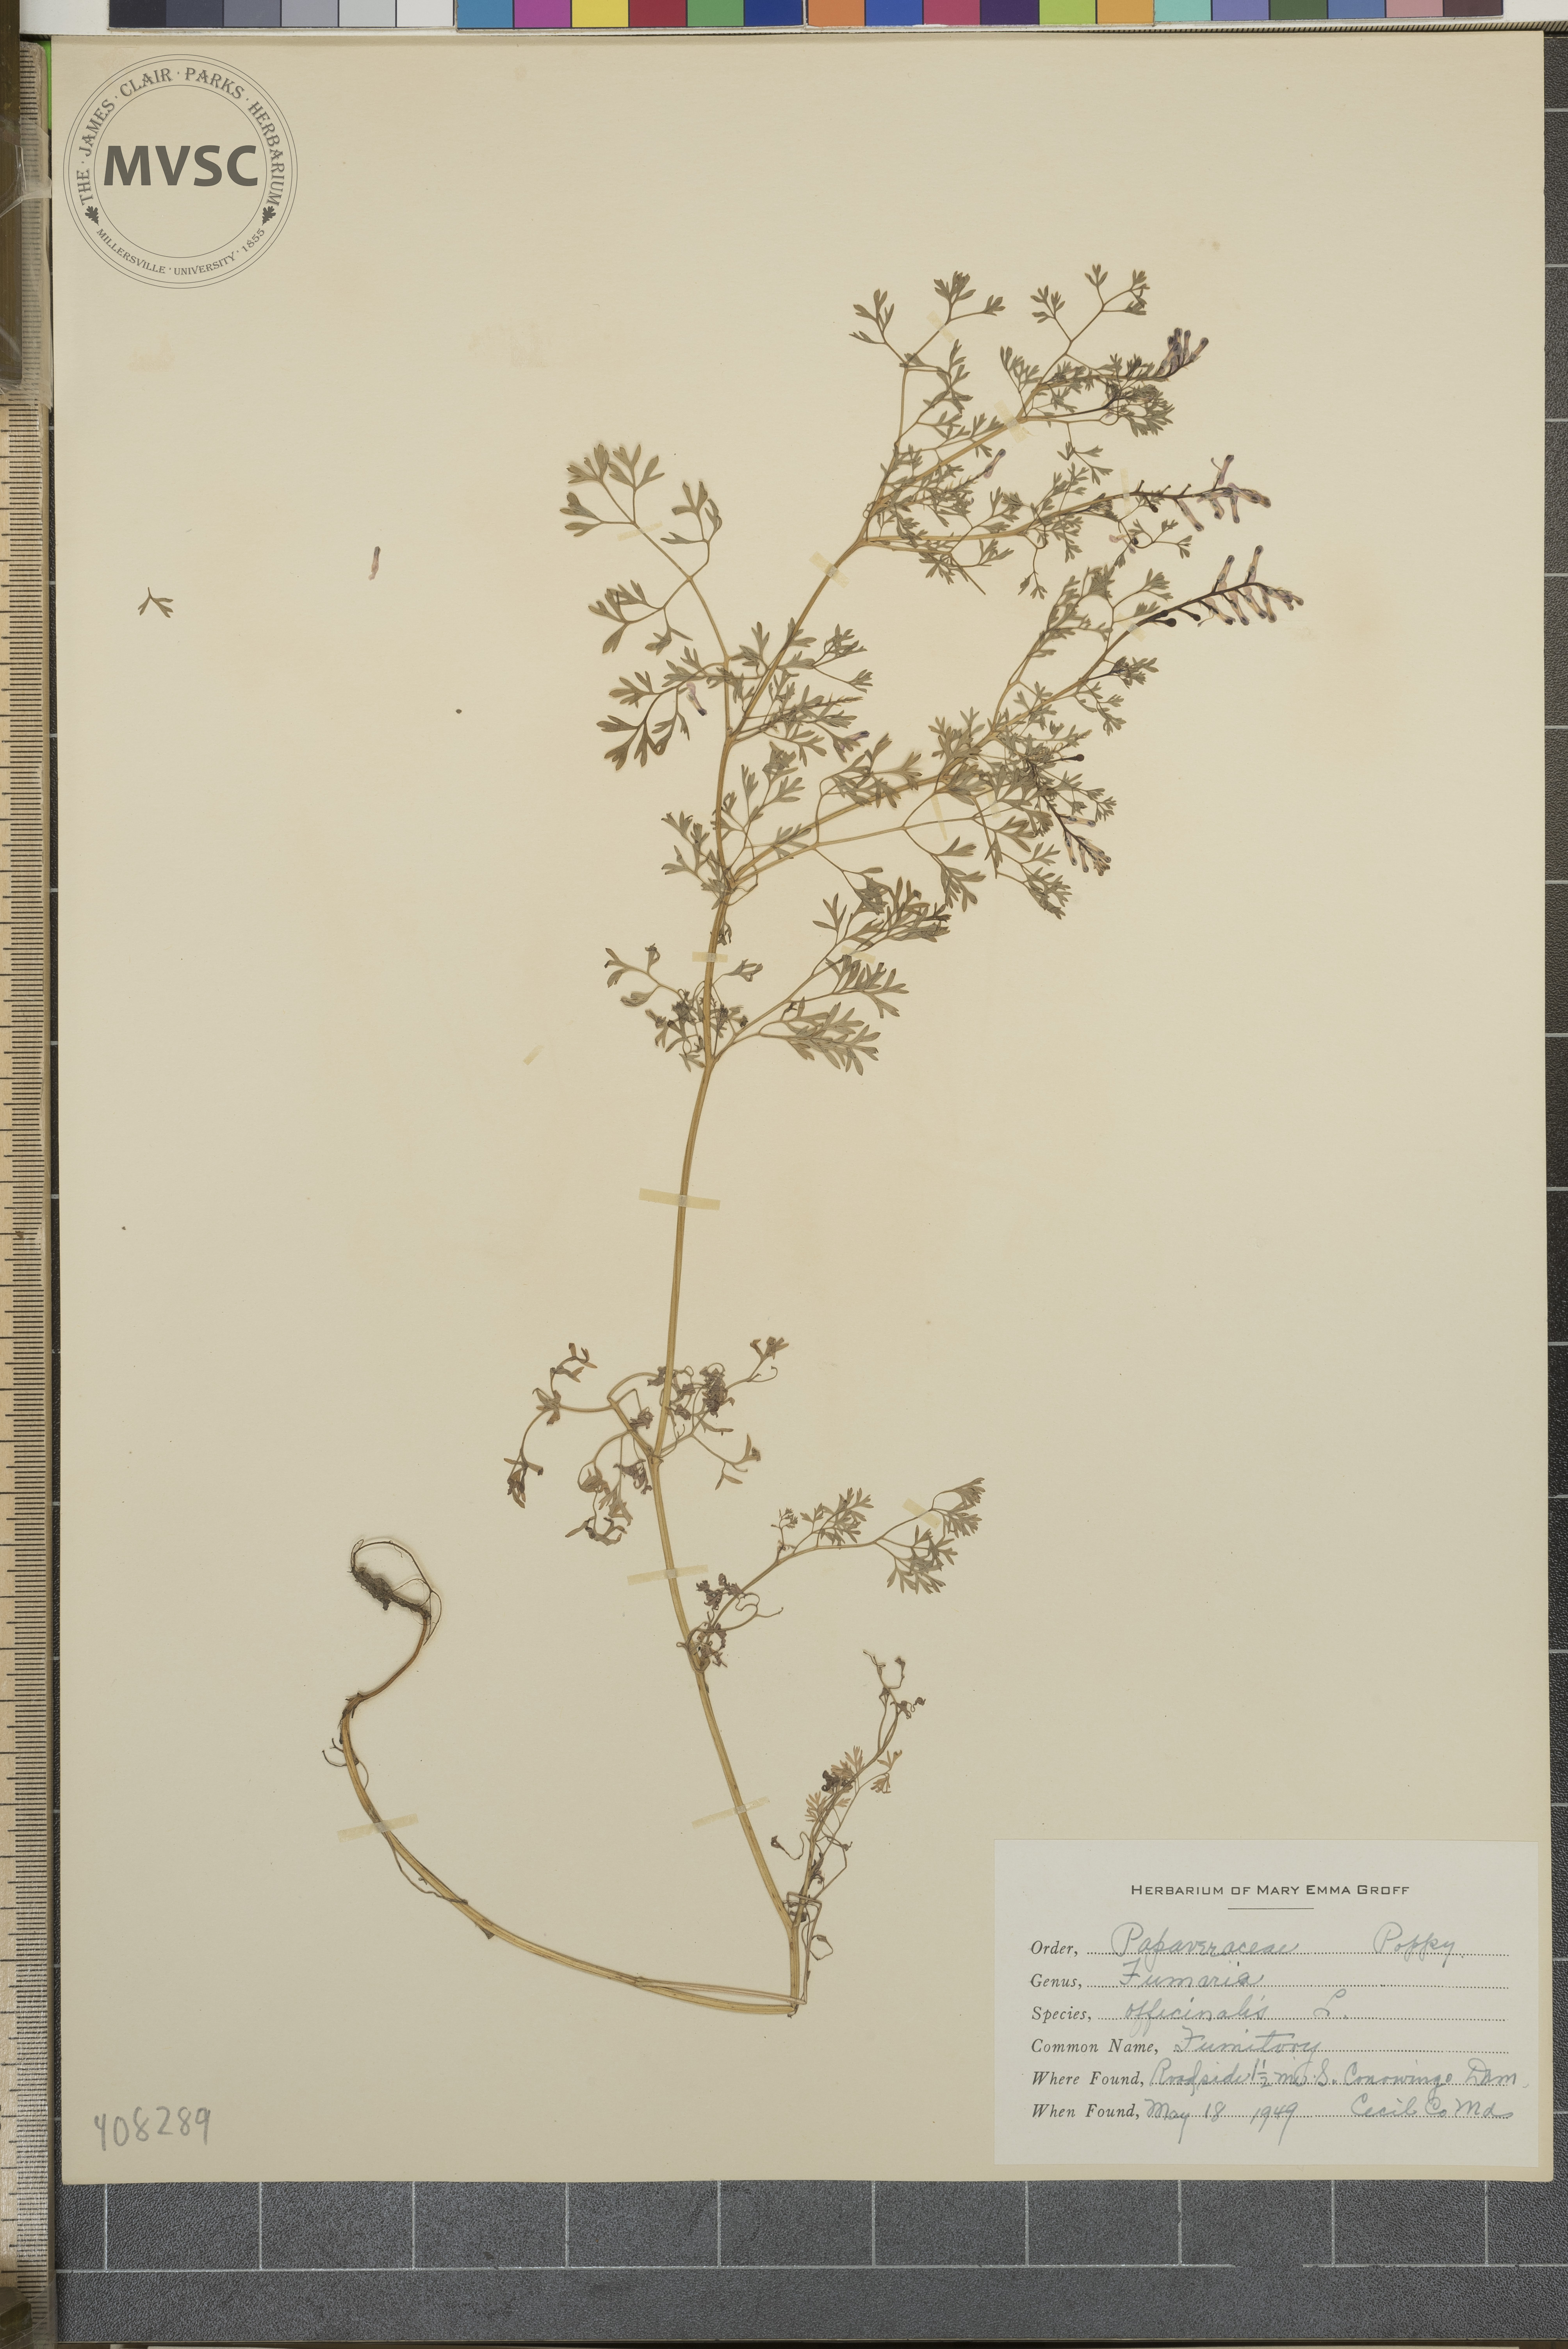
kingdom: Plantae
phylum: Tracheophyta
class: Magnoliopsida
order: Ranunculales
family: Papaveraceae
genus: Fumaria
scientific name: Fumaria officinalis
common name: Fumitory
